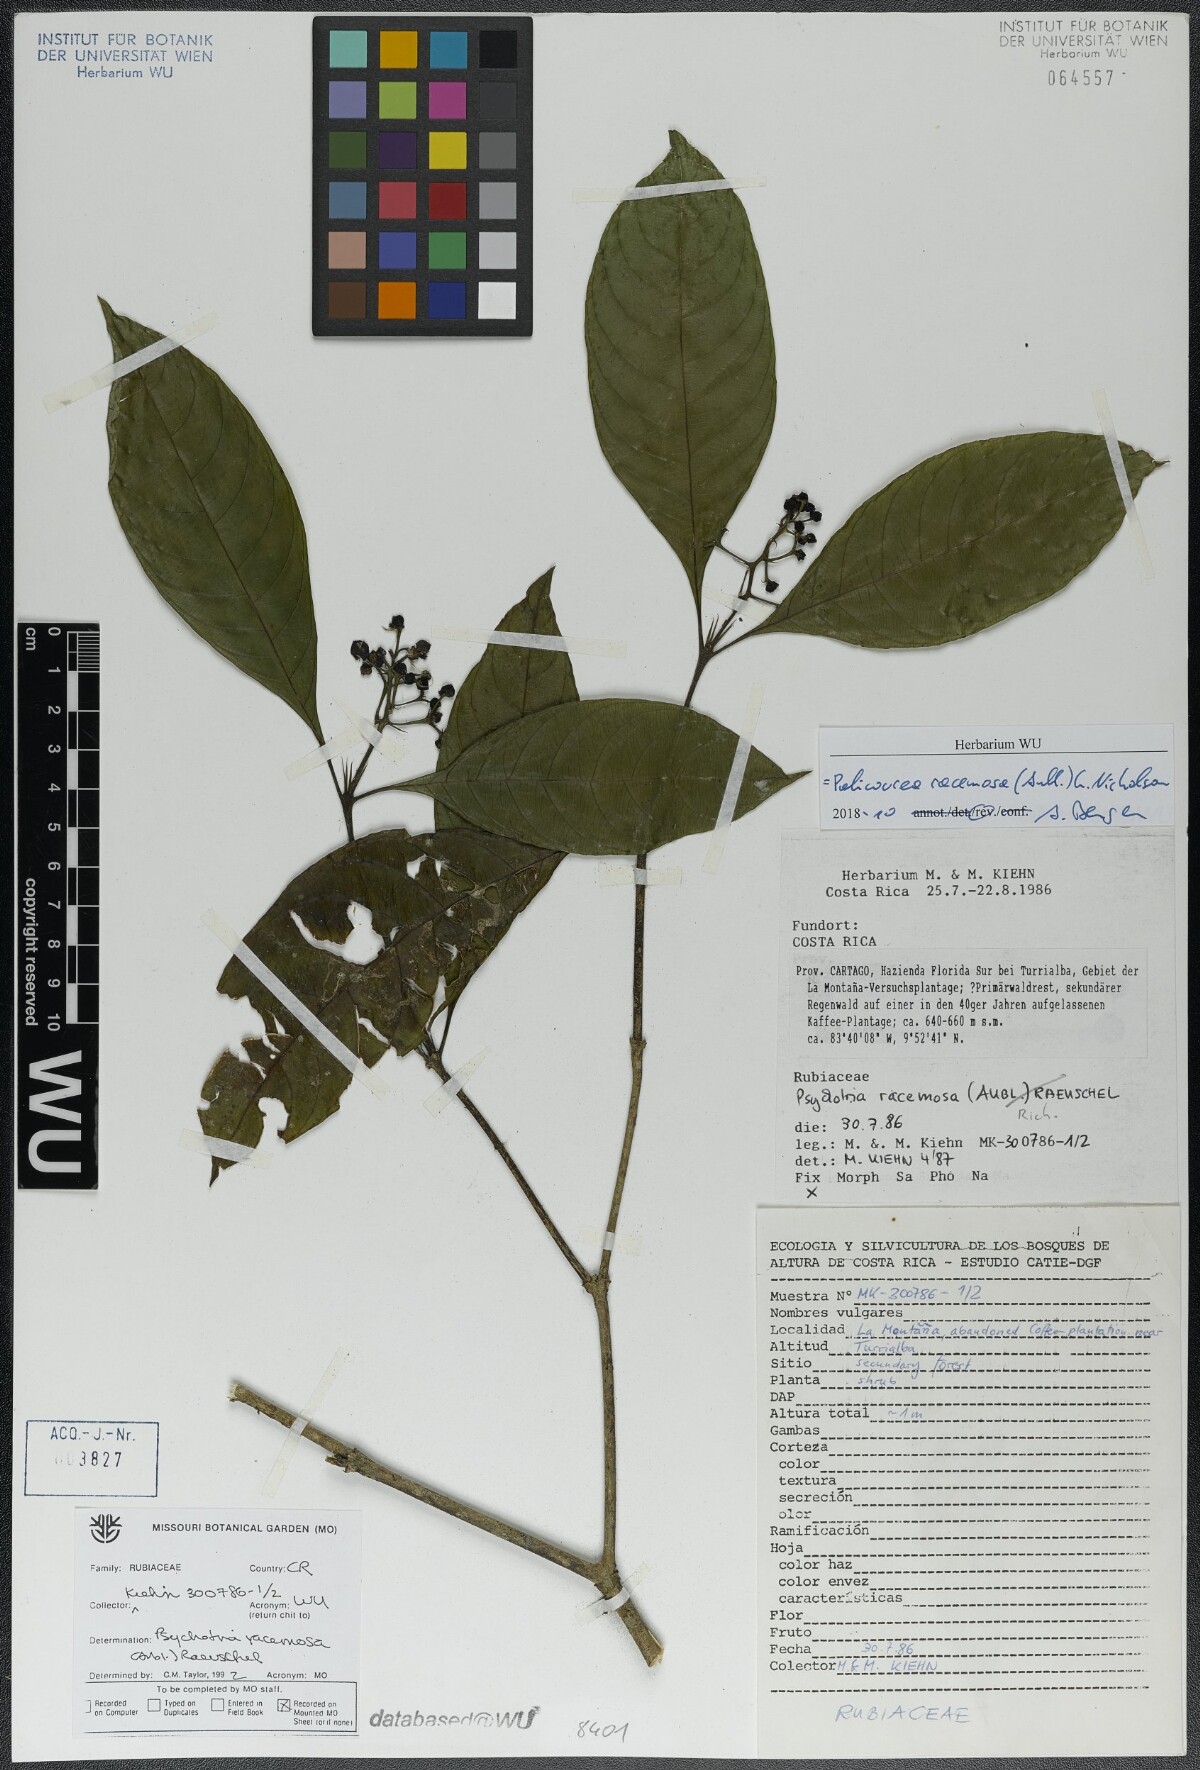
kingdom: Plantae
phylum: Tracheophyta
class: Magnoliopsida
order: Gentianales
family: Rubiaceae
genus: Palicourea
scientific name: Palicourea racemosa
